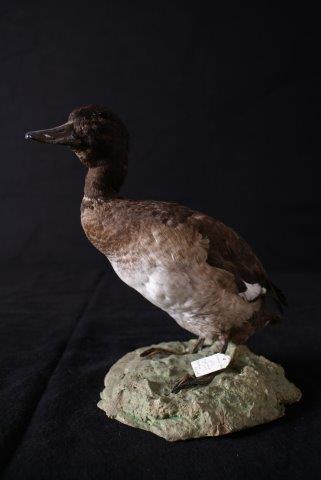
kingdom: Animalia
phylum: Chordata
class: Aves
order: Anseriformes
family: Anatidae
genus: Aythya
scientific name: Aythya fuligula
